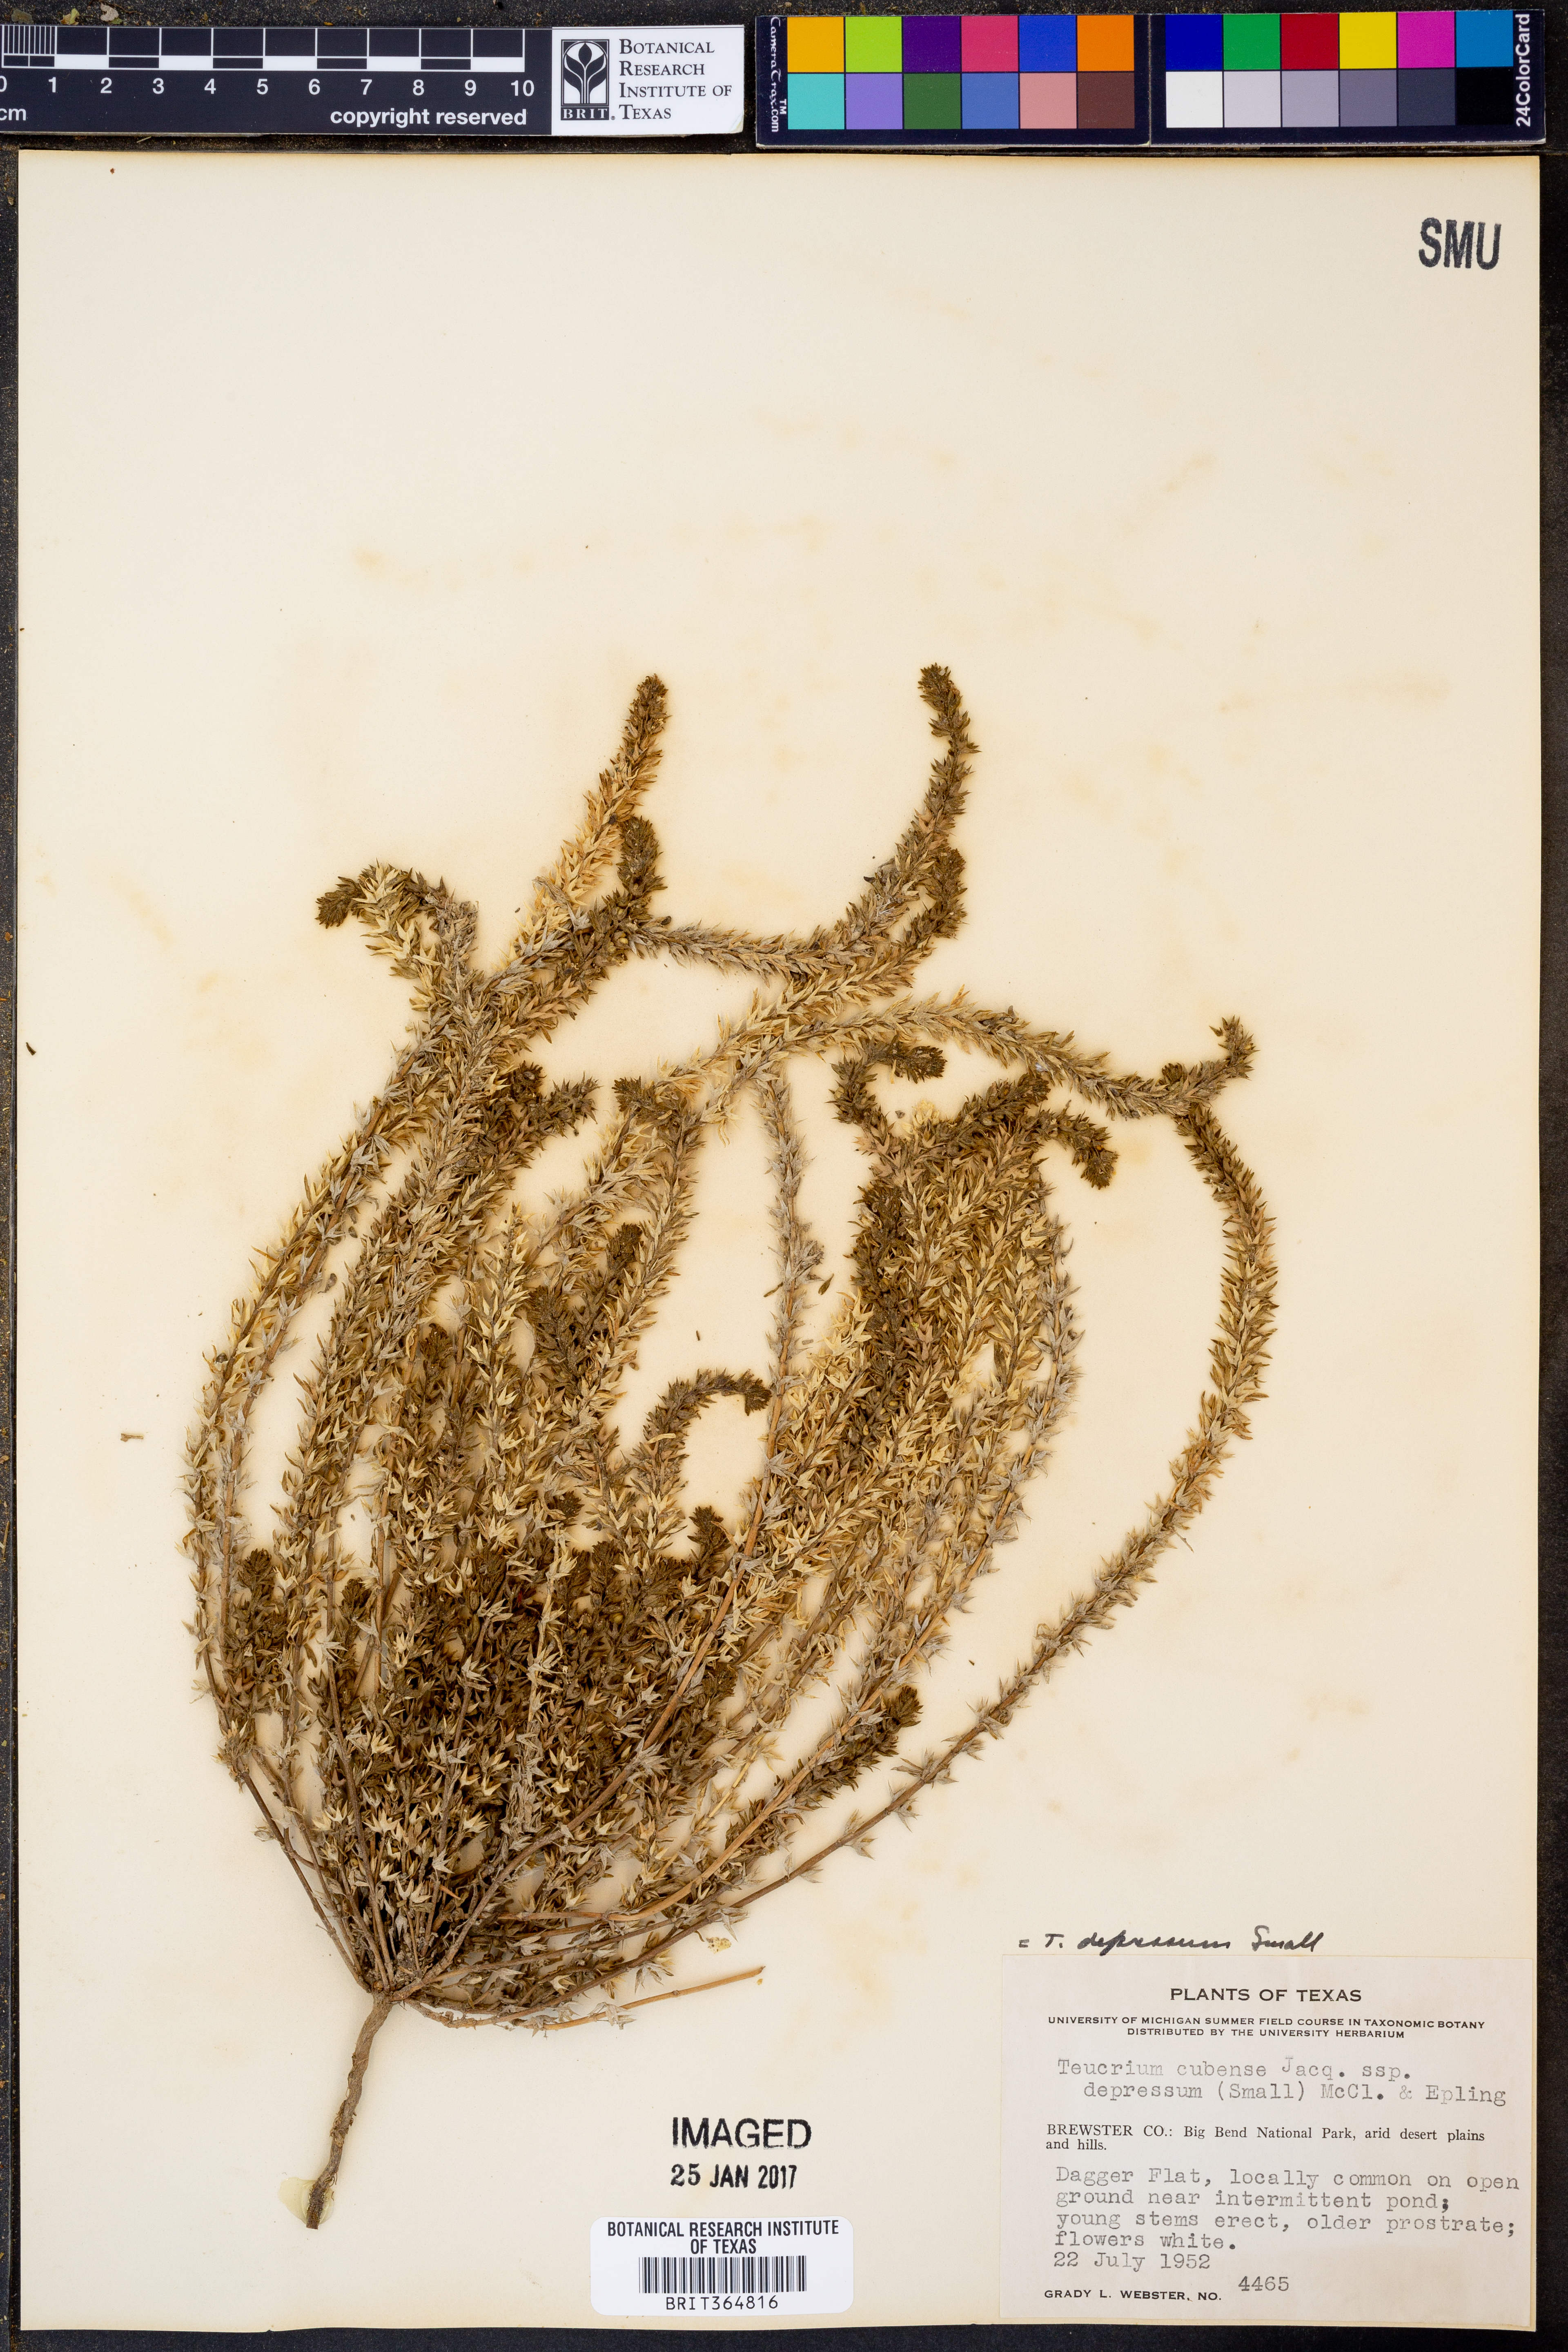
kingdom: Plantae
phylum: Tracheophyta
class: Magnoliopsida
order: Lamiales
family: Lamiaceae
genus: Teucrium
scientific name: Teucrium depressum
